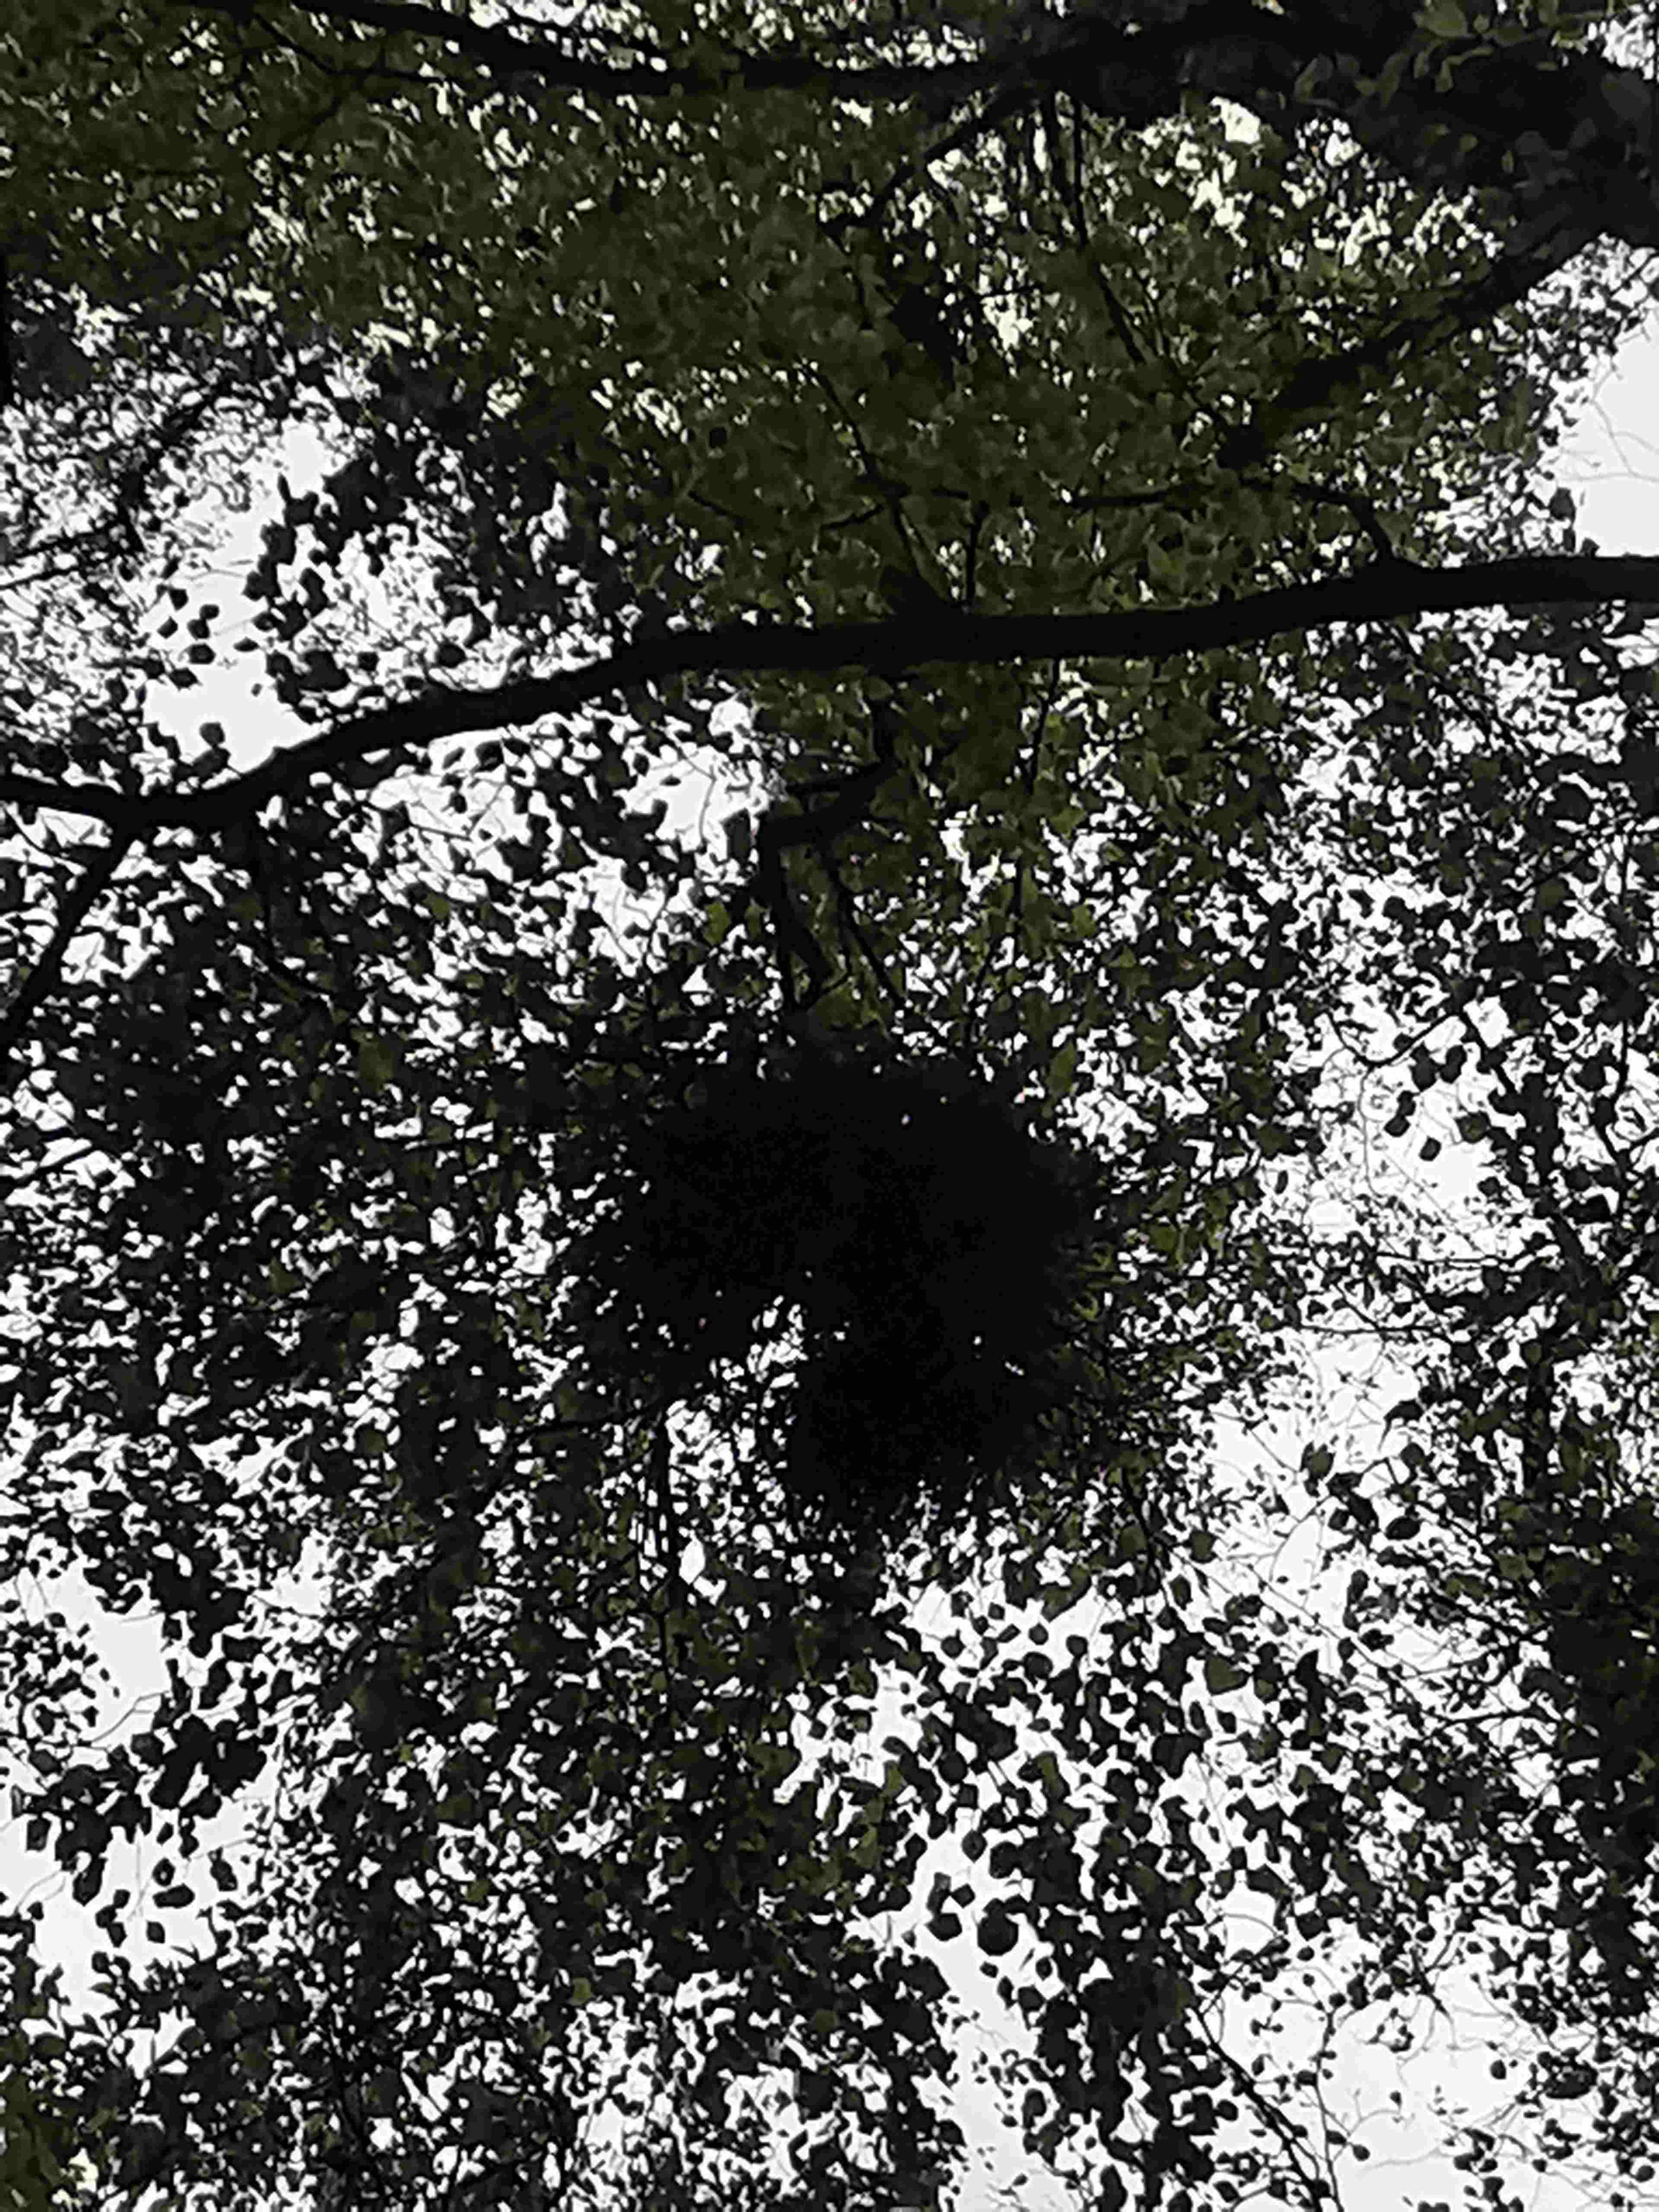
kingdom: Fungi
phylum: Ascomycota
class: Taphrinomycetes
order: Taphrinales
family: Taphrinaceae
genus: Taphrina
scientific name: Taphrina betulina
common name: hekse-sækdug
